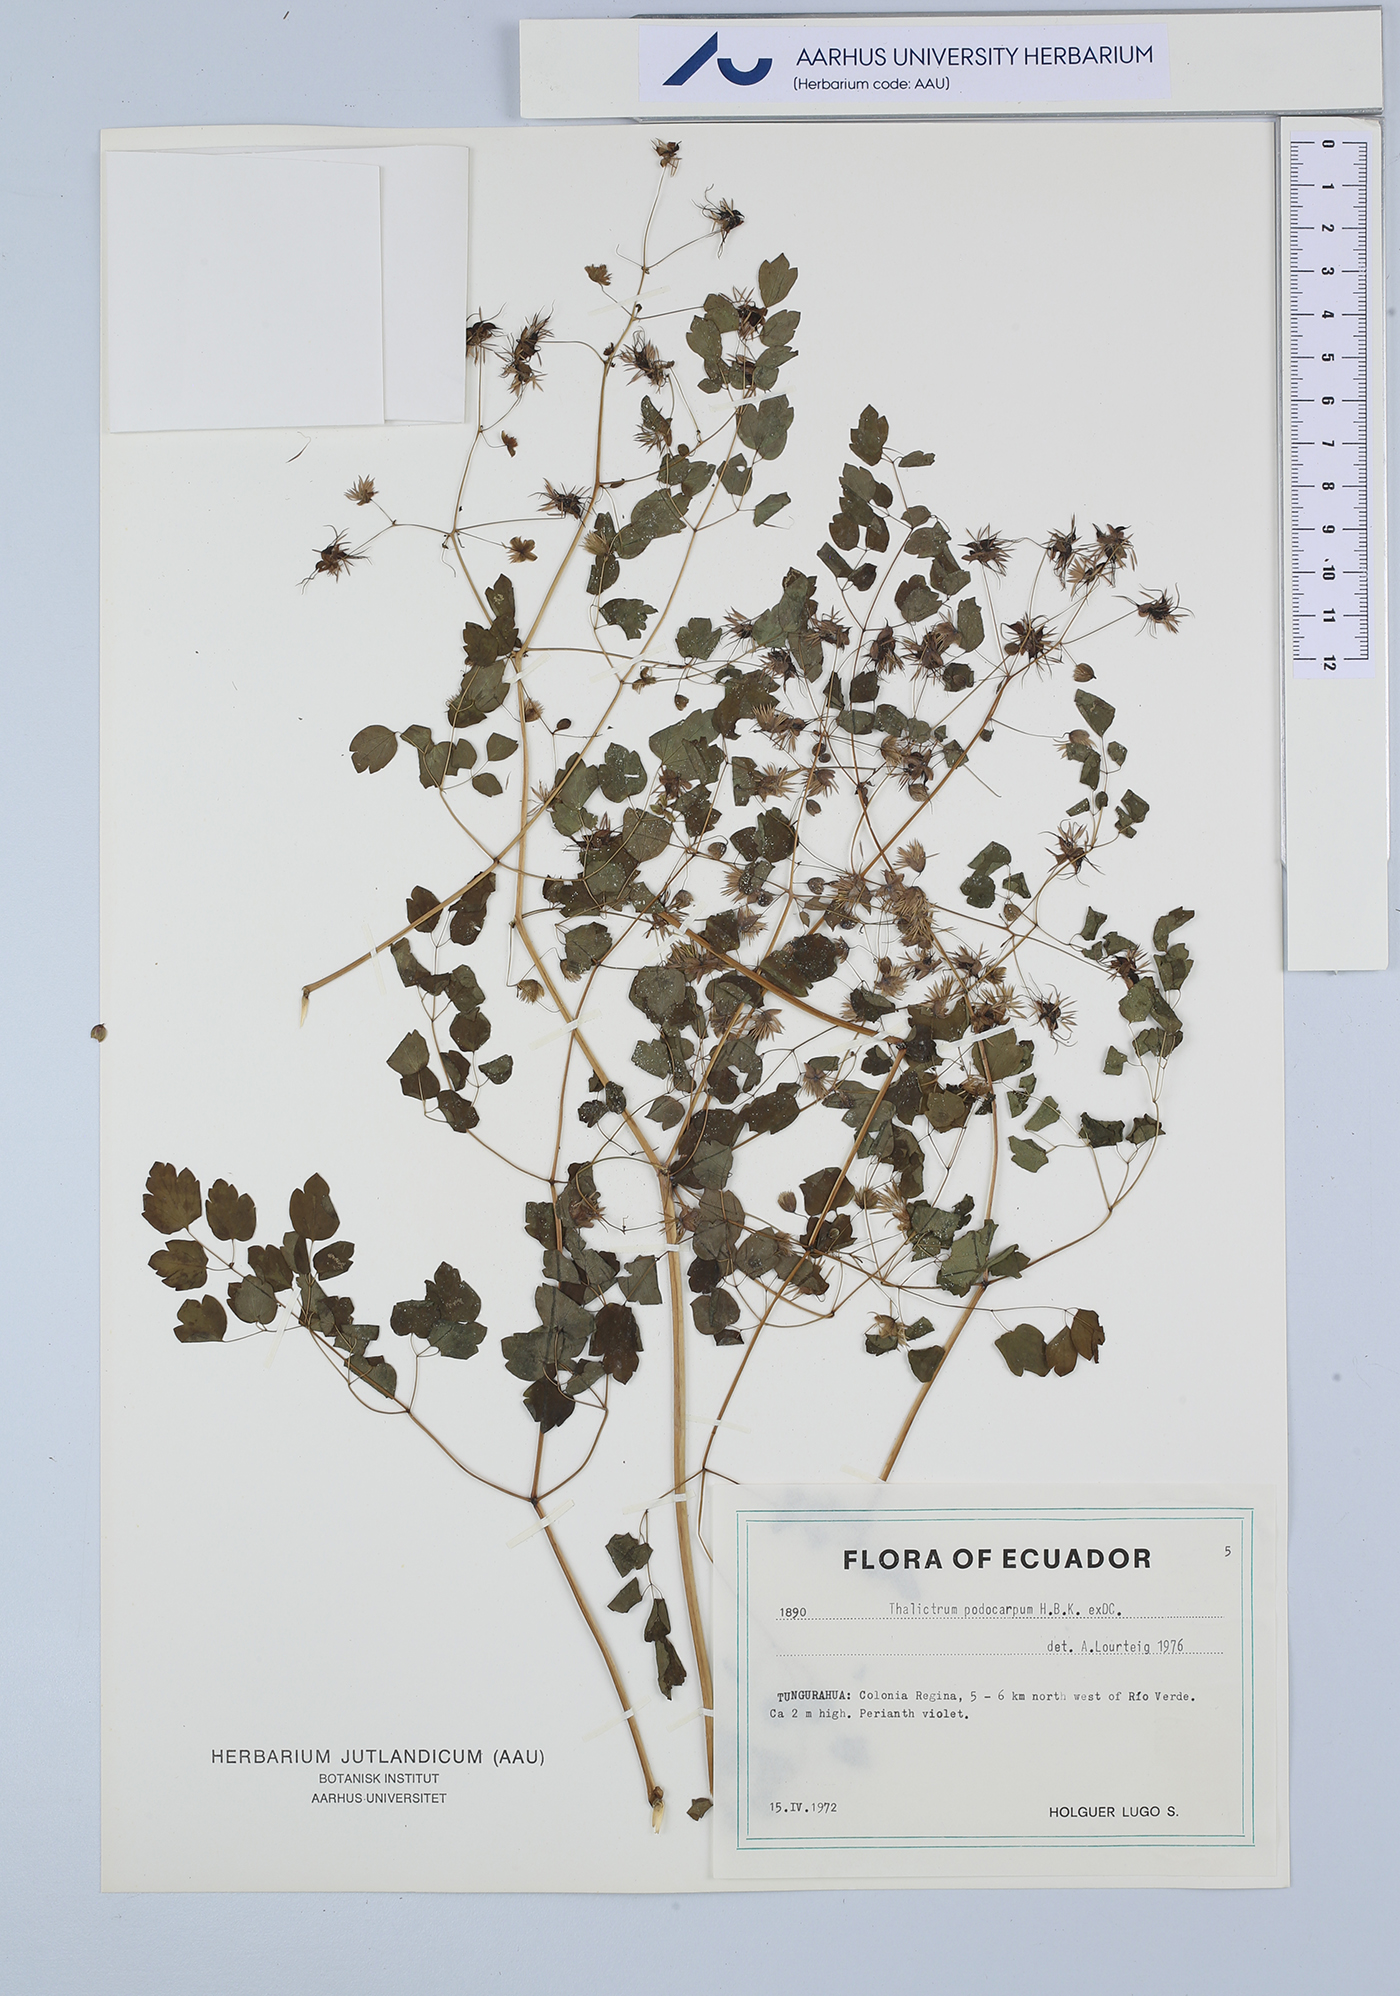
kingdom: Plantae
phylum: Tracheophyta
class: Magnoliopsida
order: Ranunculales
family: Ranunculaceae
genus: Thalictrum
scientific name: Thalictrum podocarpum
